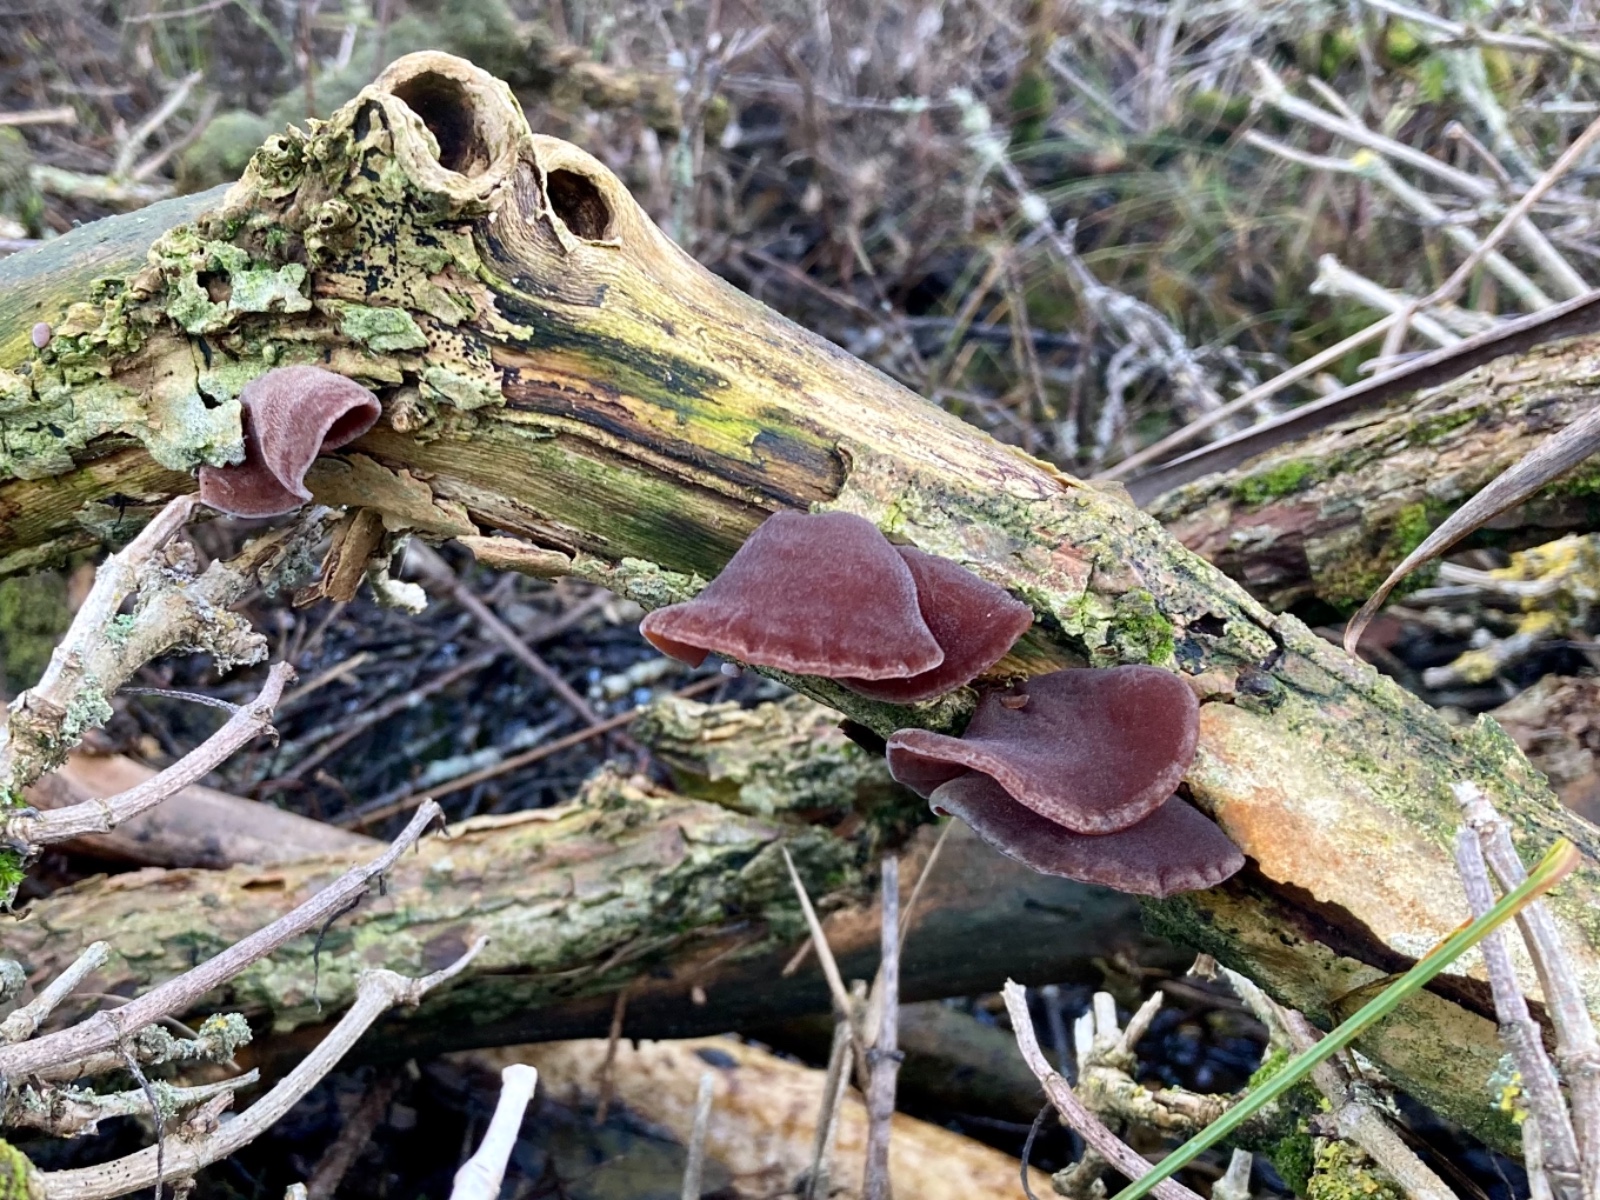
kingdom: Fungi
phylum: Basidiomycota
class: Agaricomycetes
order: Auriculariales
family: Auriculariaceae
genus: Auricularia
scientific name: Auricularia auricula-judae
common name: almindelig judasøre
